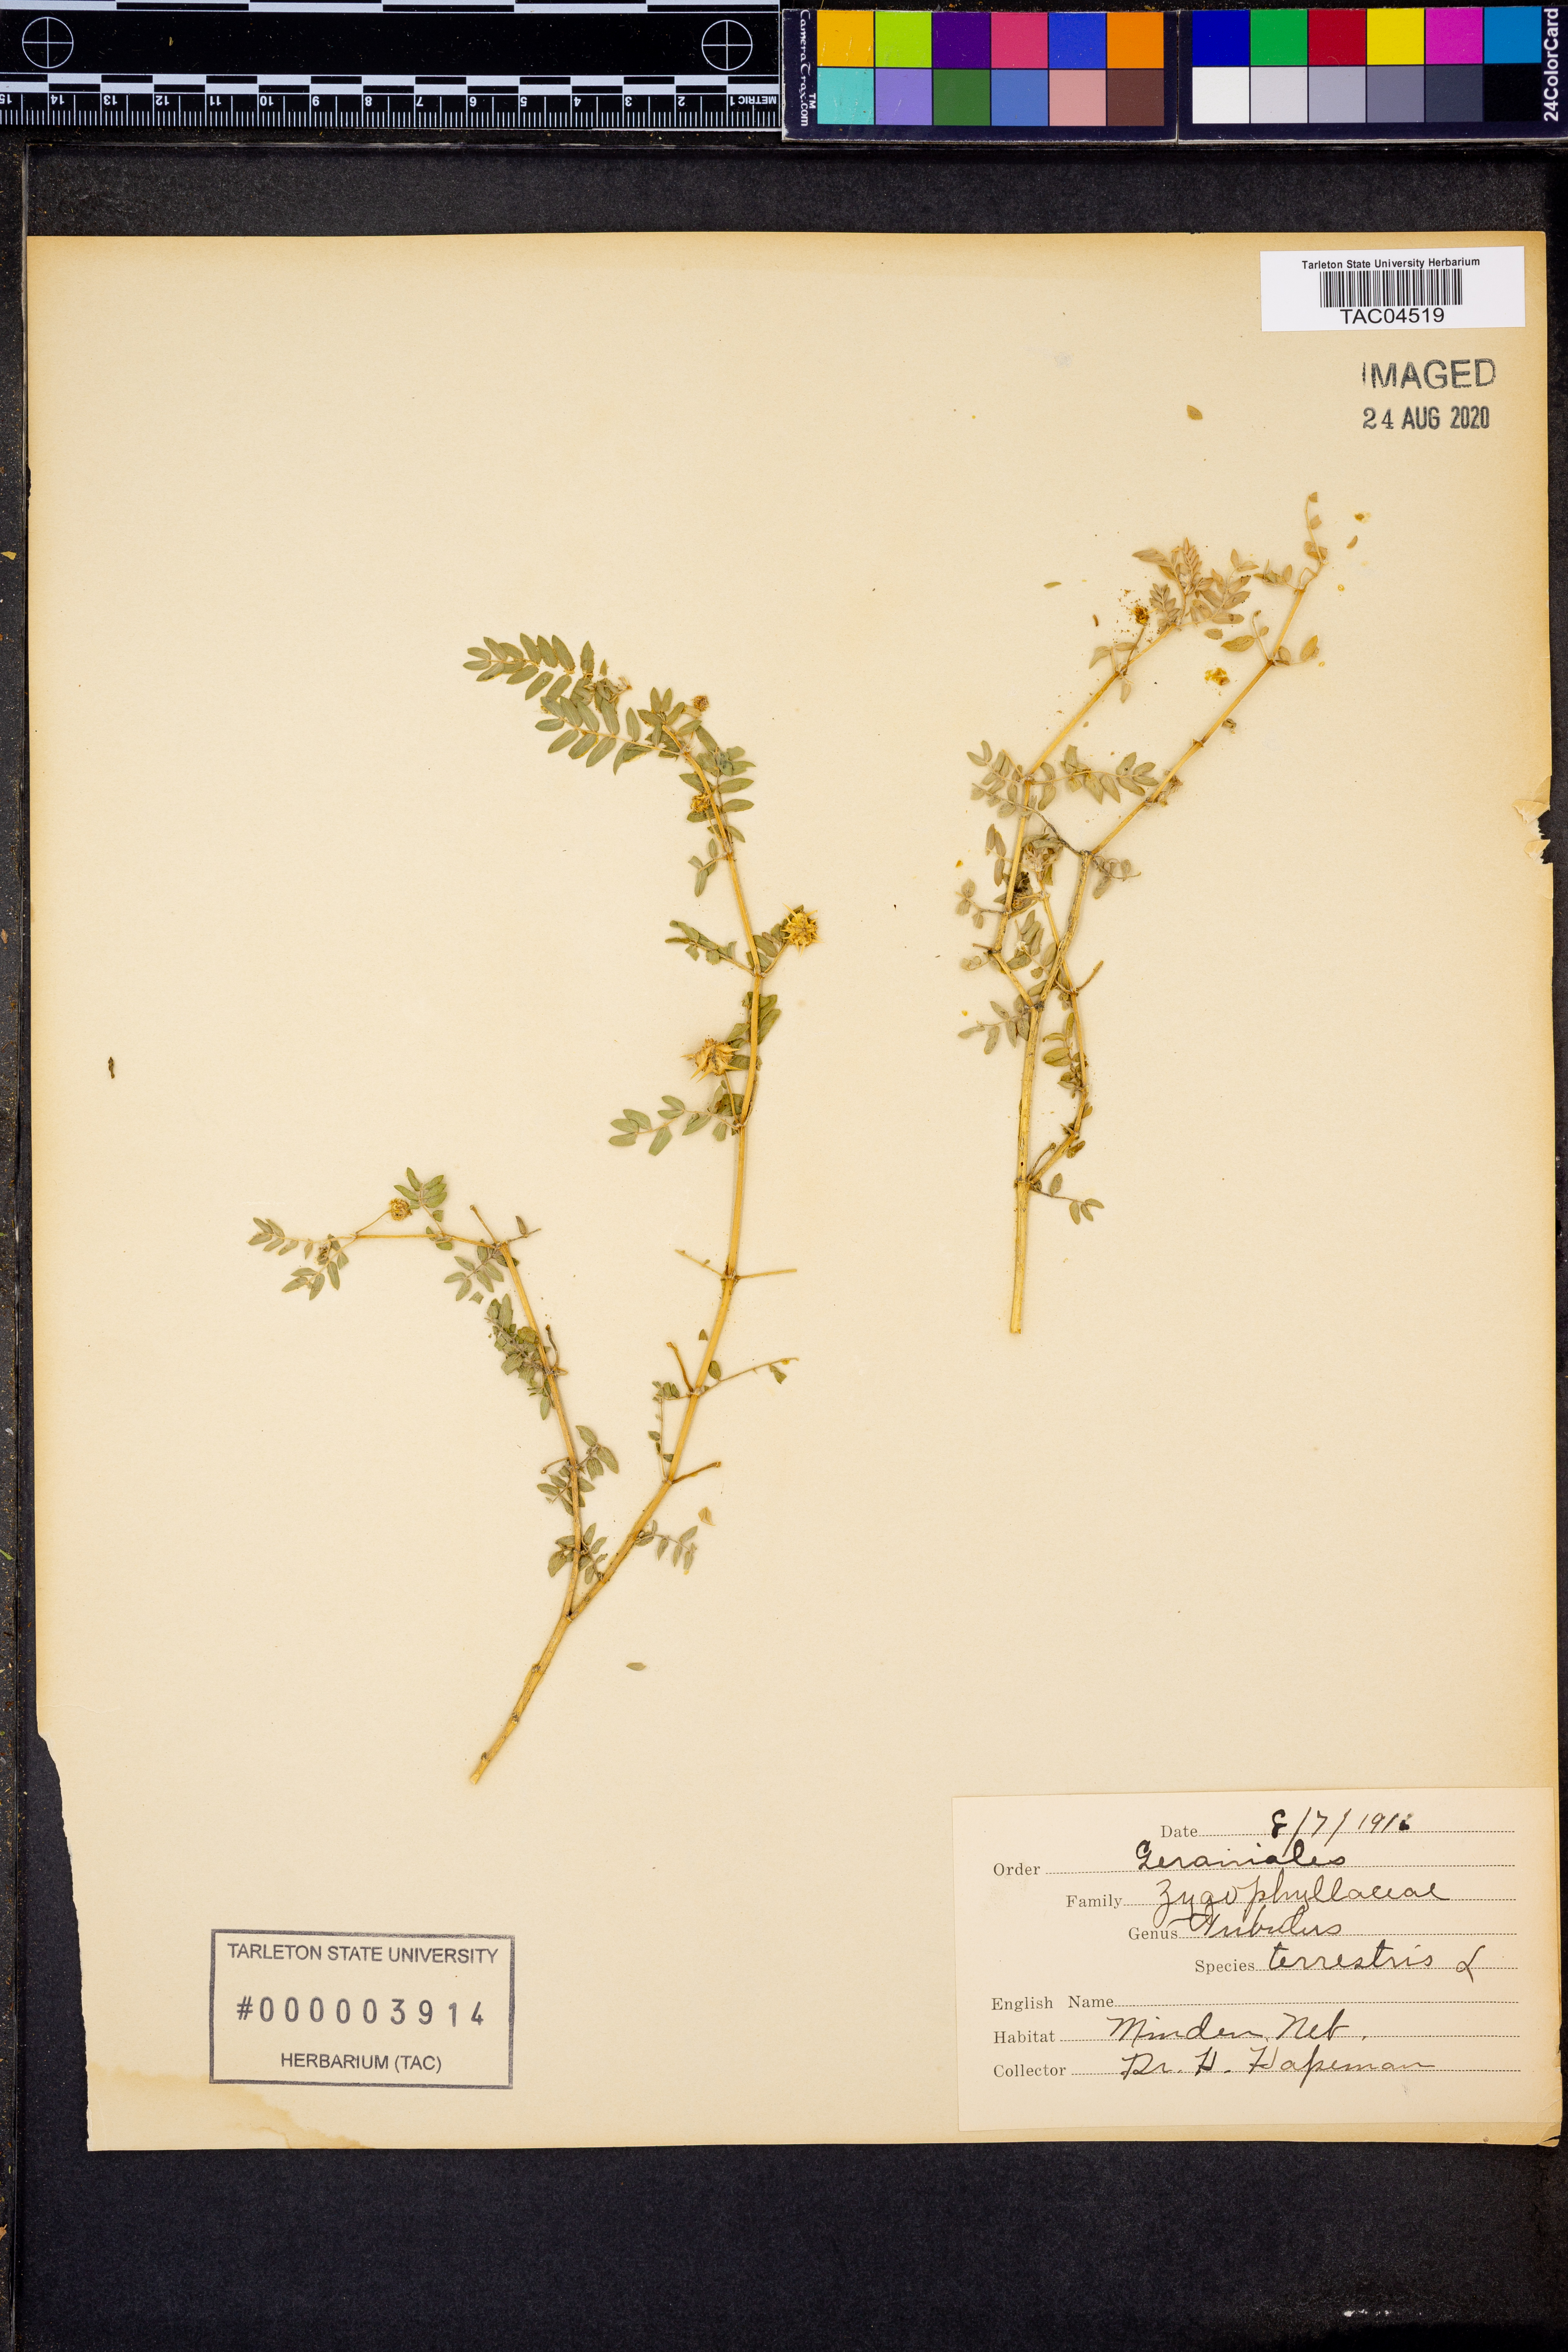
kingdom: Plantae
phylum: Tracheophyta
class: Magnoliopsida
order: Zygophyllales
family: Zygophyllaceae
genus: Tribulus
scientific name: Tribulus terrestris
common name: Puncturevine
